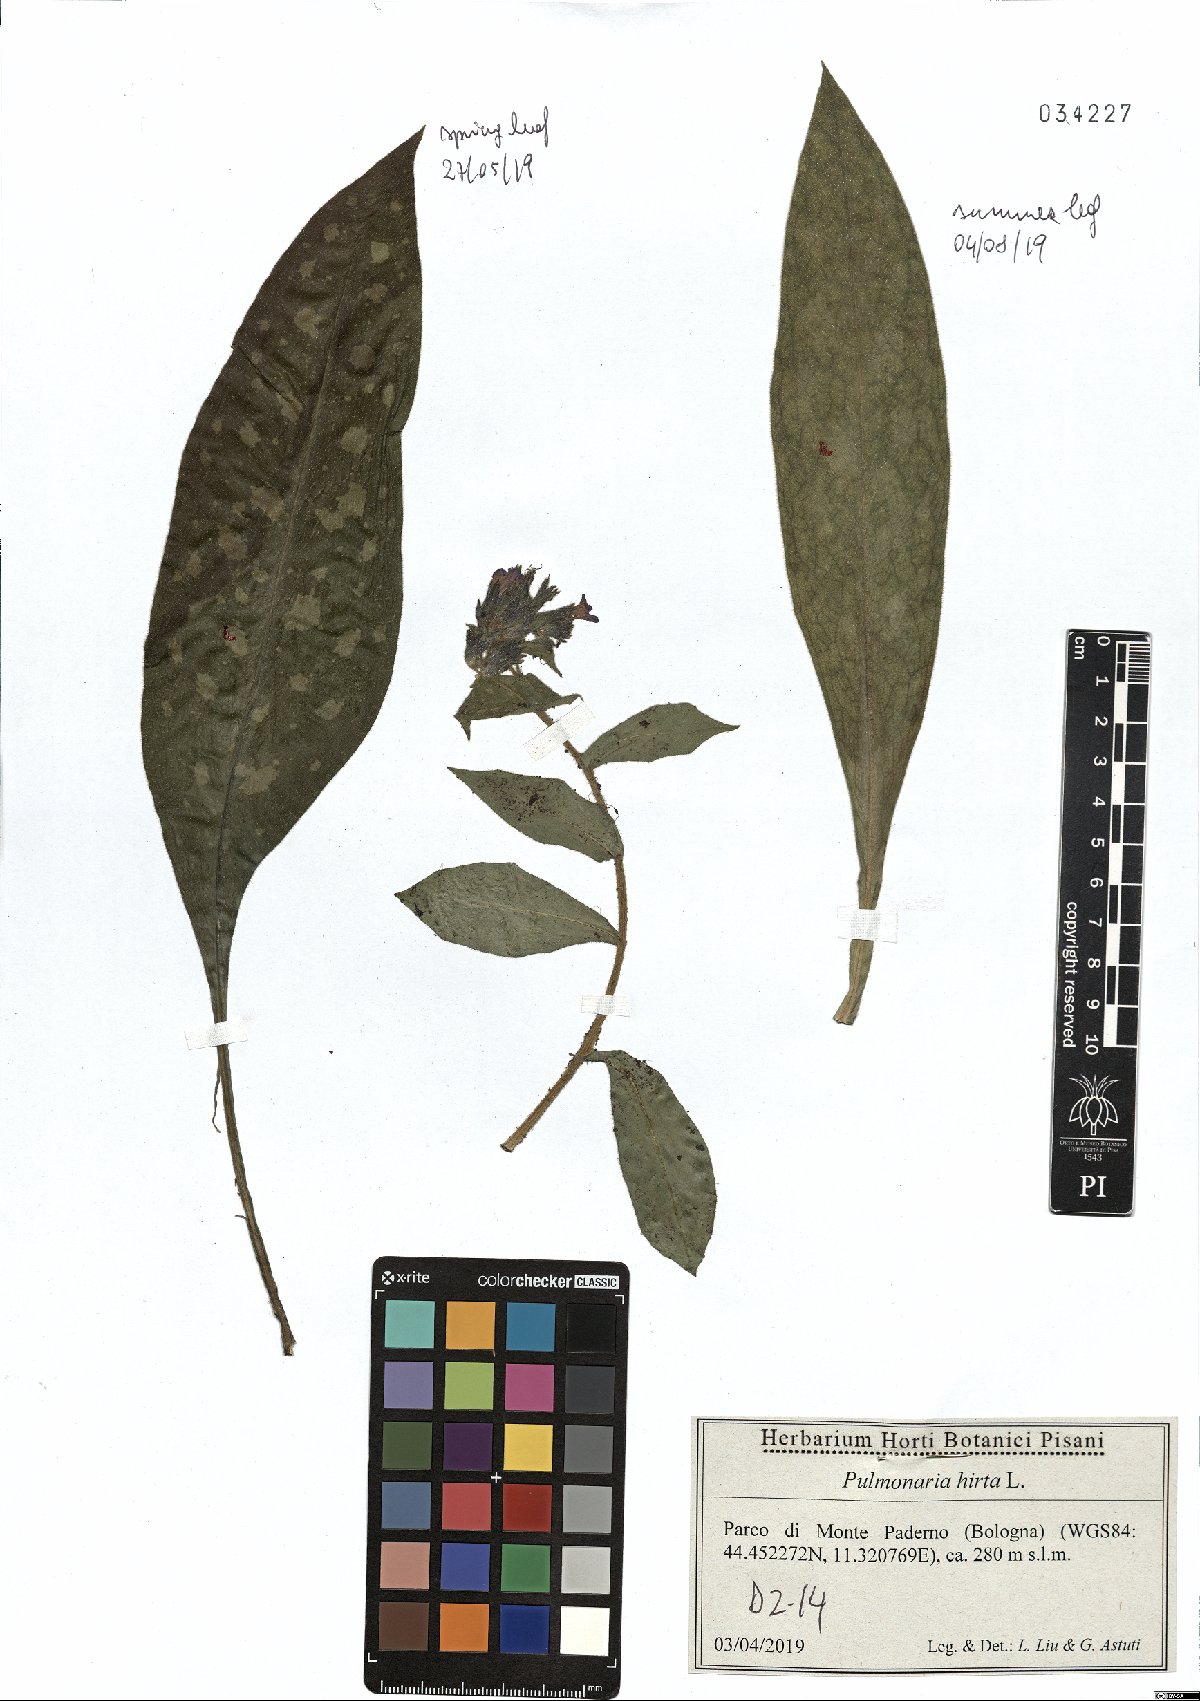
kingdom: Plantae
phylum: Tracheophyta
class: Magnoliopsida
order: Boraginales
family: Boraginaceae
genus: Pulmonaria
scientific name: Pulmonaria hirta
